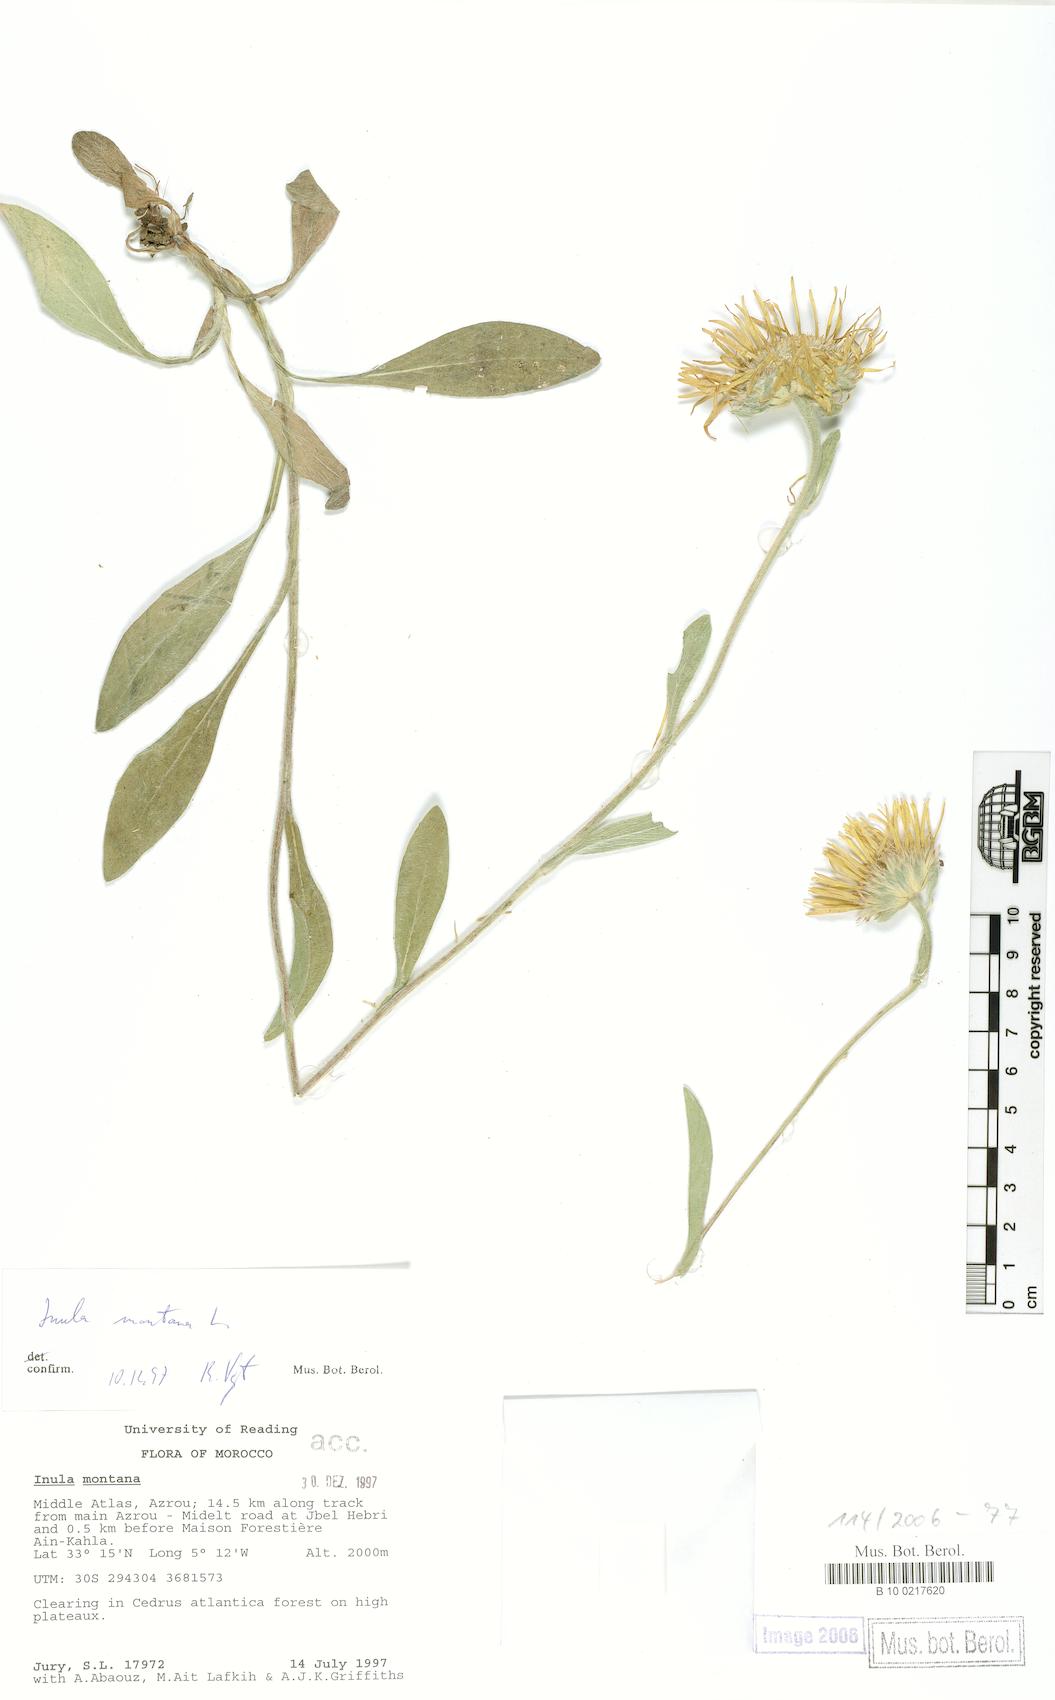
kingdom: Plantae
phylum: Tracheophyta
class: Magnoliopsida
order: Asterales
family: Asteraceae
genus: Pentanema
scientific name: Pentanema montanum
